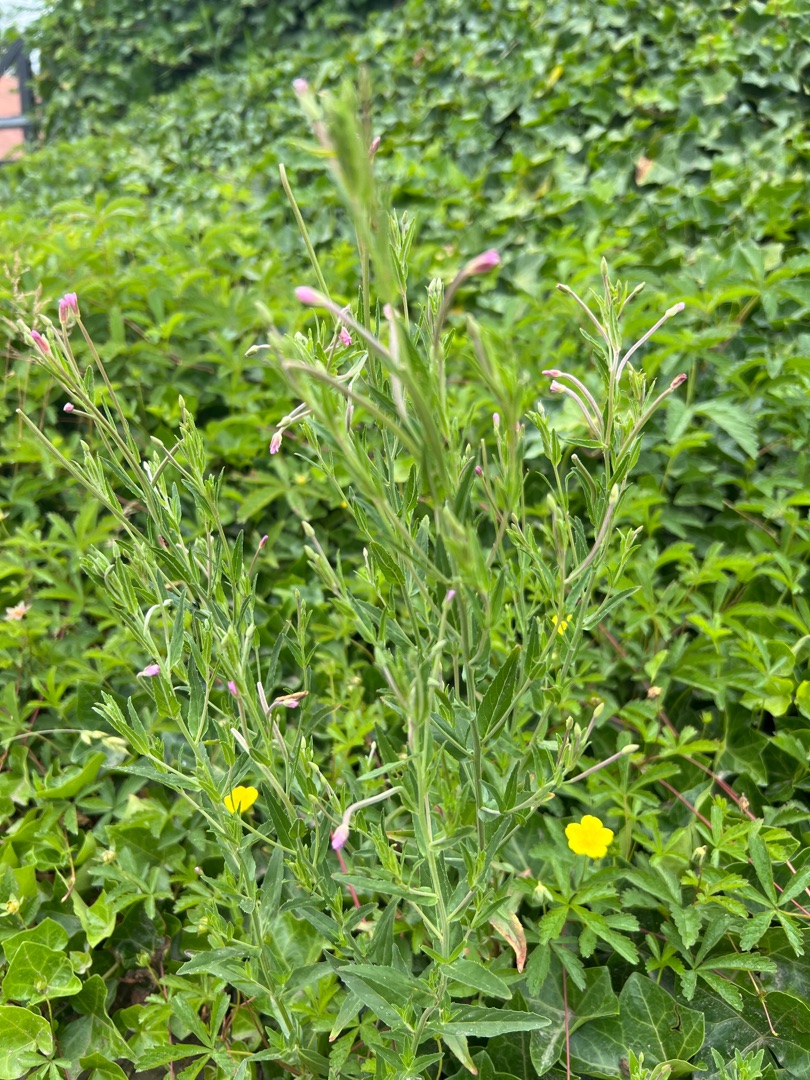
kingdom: Plantae
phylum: Tracheophyta
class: Magnoliopsida
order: Myrtales
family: Onagraceae
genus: Epilobium
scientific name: Epilobium
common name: Dueurtslægten
